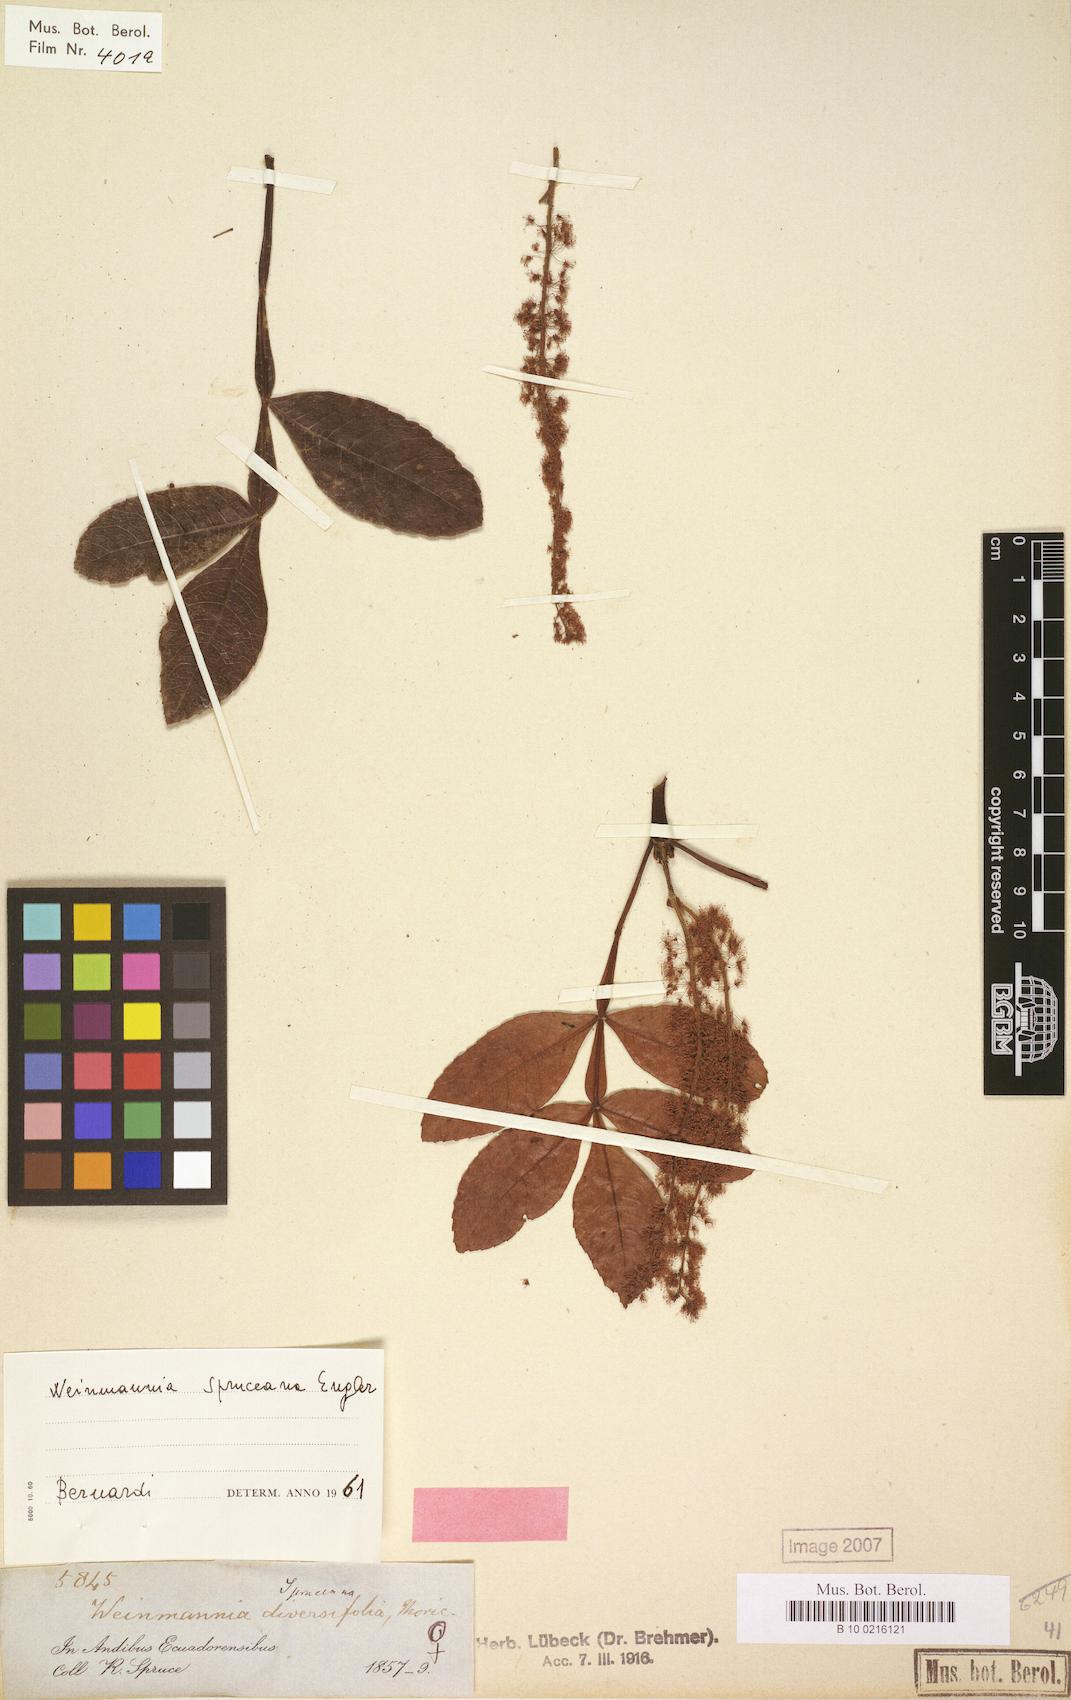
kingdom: Plantae
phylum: Tracheophyta
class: Magnoliopsida
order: Oxalidales
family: Cunoniaceae
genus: Weinmannia
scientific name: Weinmannia spruceana
